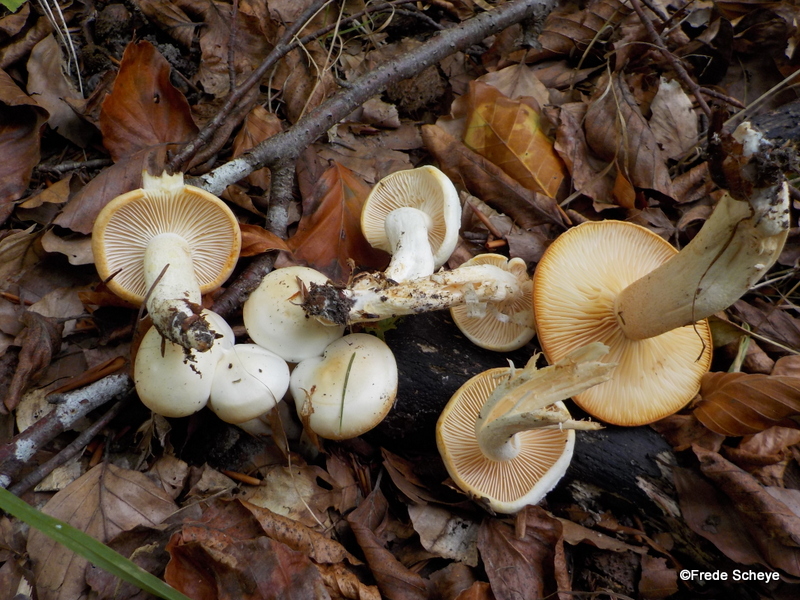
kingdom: Fungi
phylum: Basidiomycota
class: Agaricomycetes
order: Agaricales
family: Hygrophoraceae
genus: Hygrophorus
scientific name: Hygrophorus chrysodon
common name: gulfnugget sneglehat
